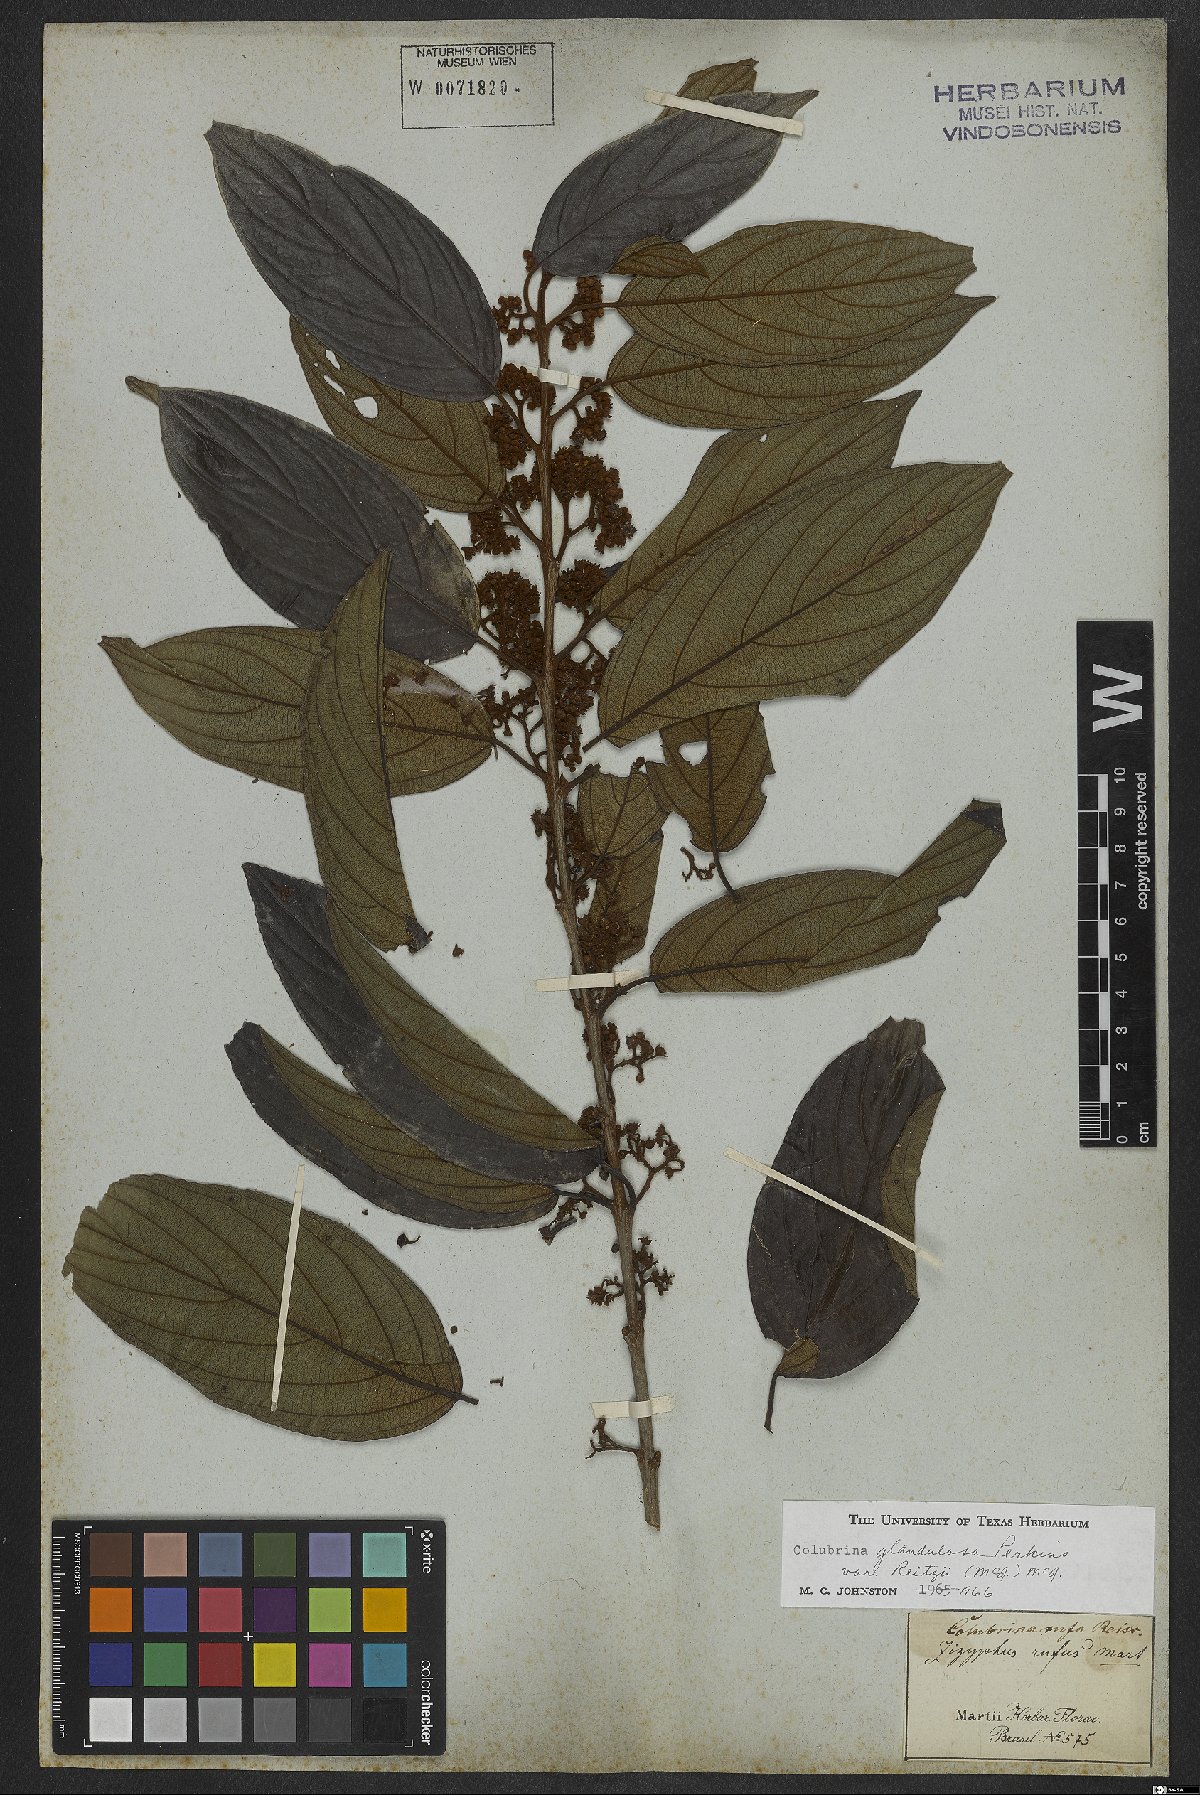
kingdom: Plantae
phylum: Tracheophyta
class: Magnoliopsida
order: Rosales
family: Rhamnaceae
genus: Colubrina
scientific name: Colubrina glandulosa
